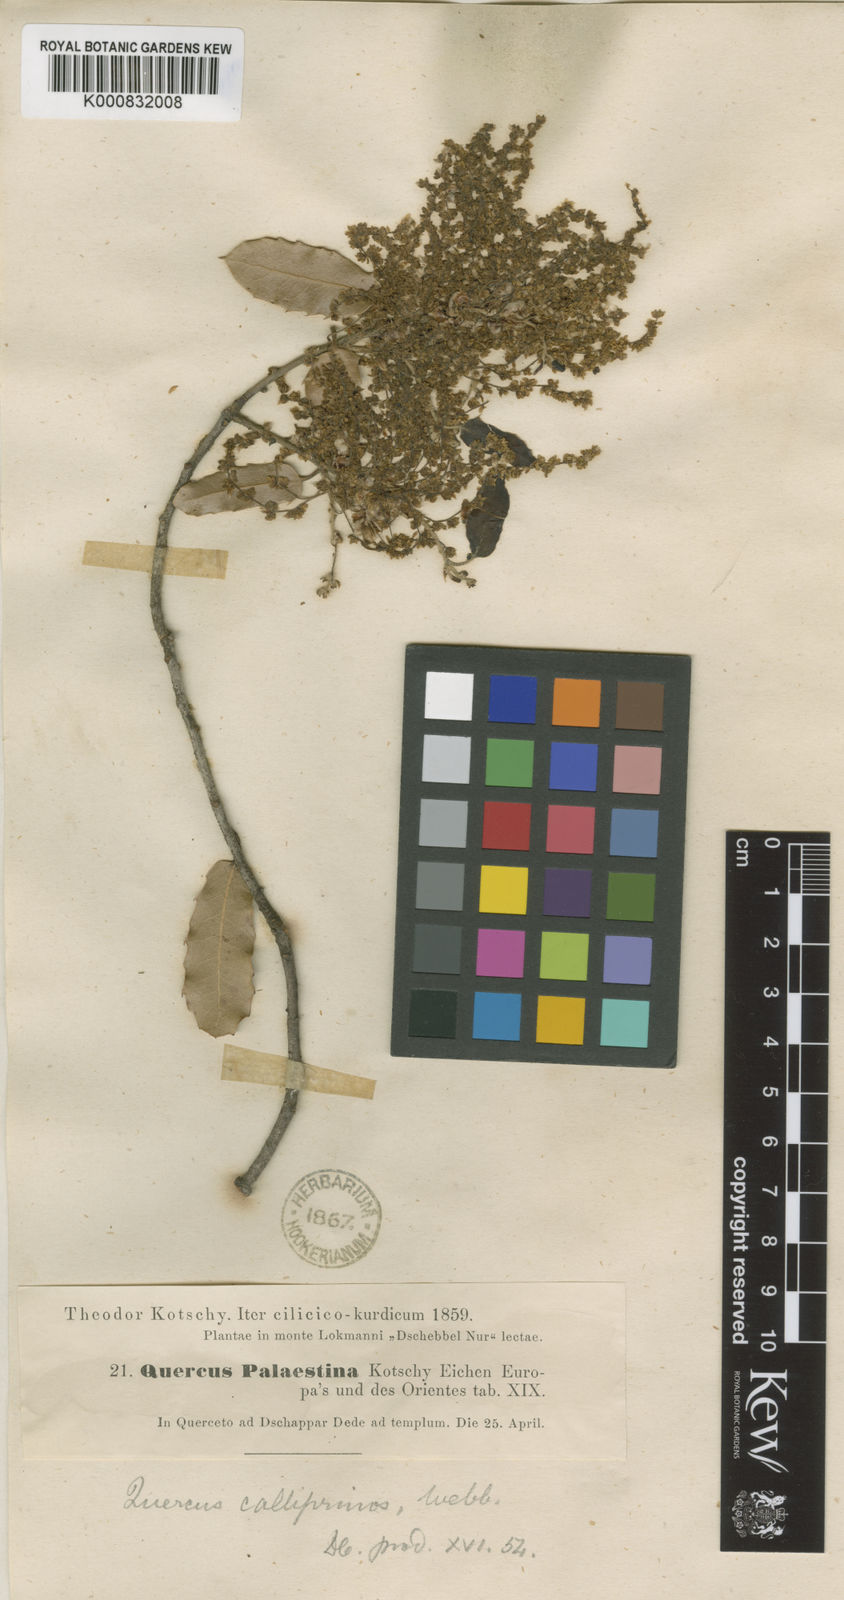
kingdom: Plantae
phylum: Tracheophyta
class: Magnoliopsida
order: Fagales
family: Fagaceae
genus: Quercus
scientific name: Quercus coccifera
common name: Kermes oak
